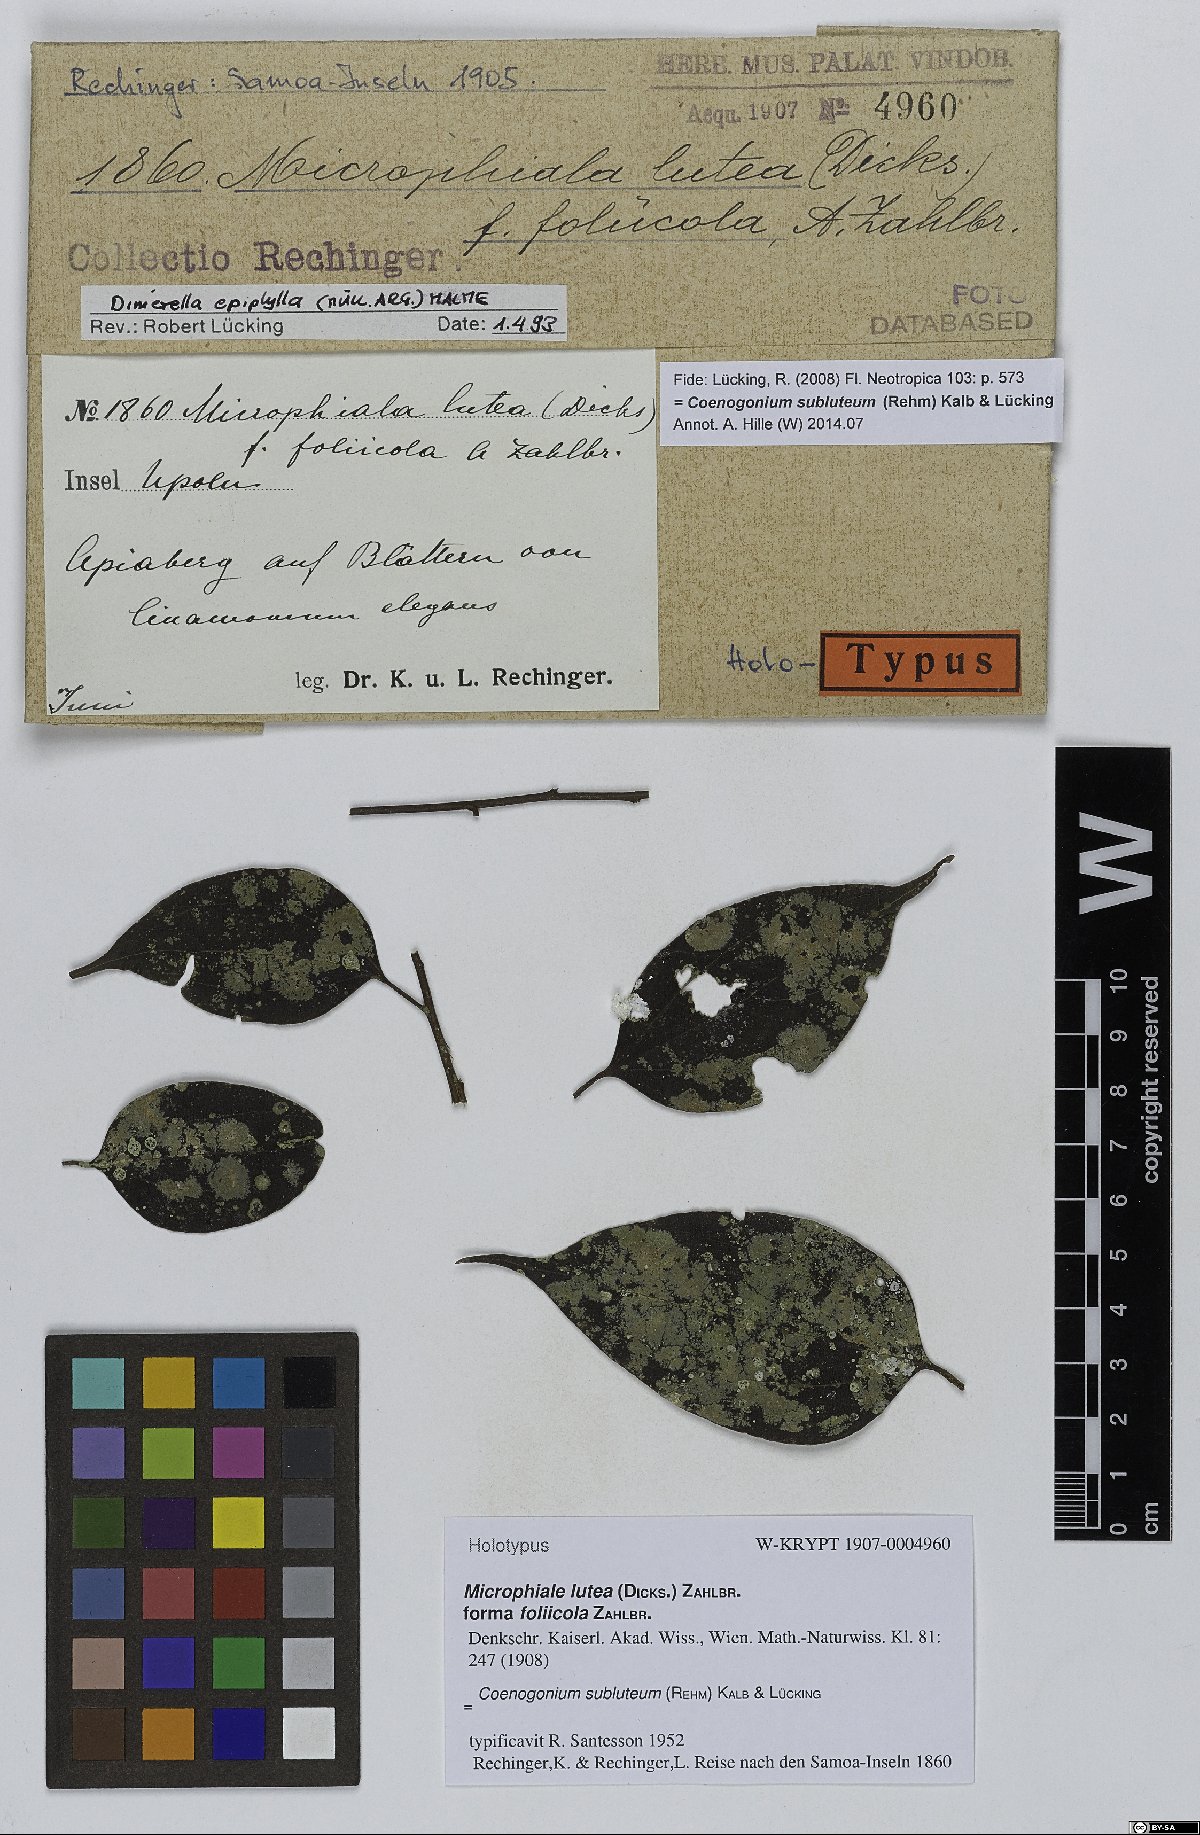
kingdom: Fungi
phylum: Ascomycota
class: Lecanoromycetes
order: Ostropales
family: Coenogoniaceae
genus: Coenogonium
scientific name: Coenogonium luteum
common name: Orange dimple lichen
